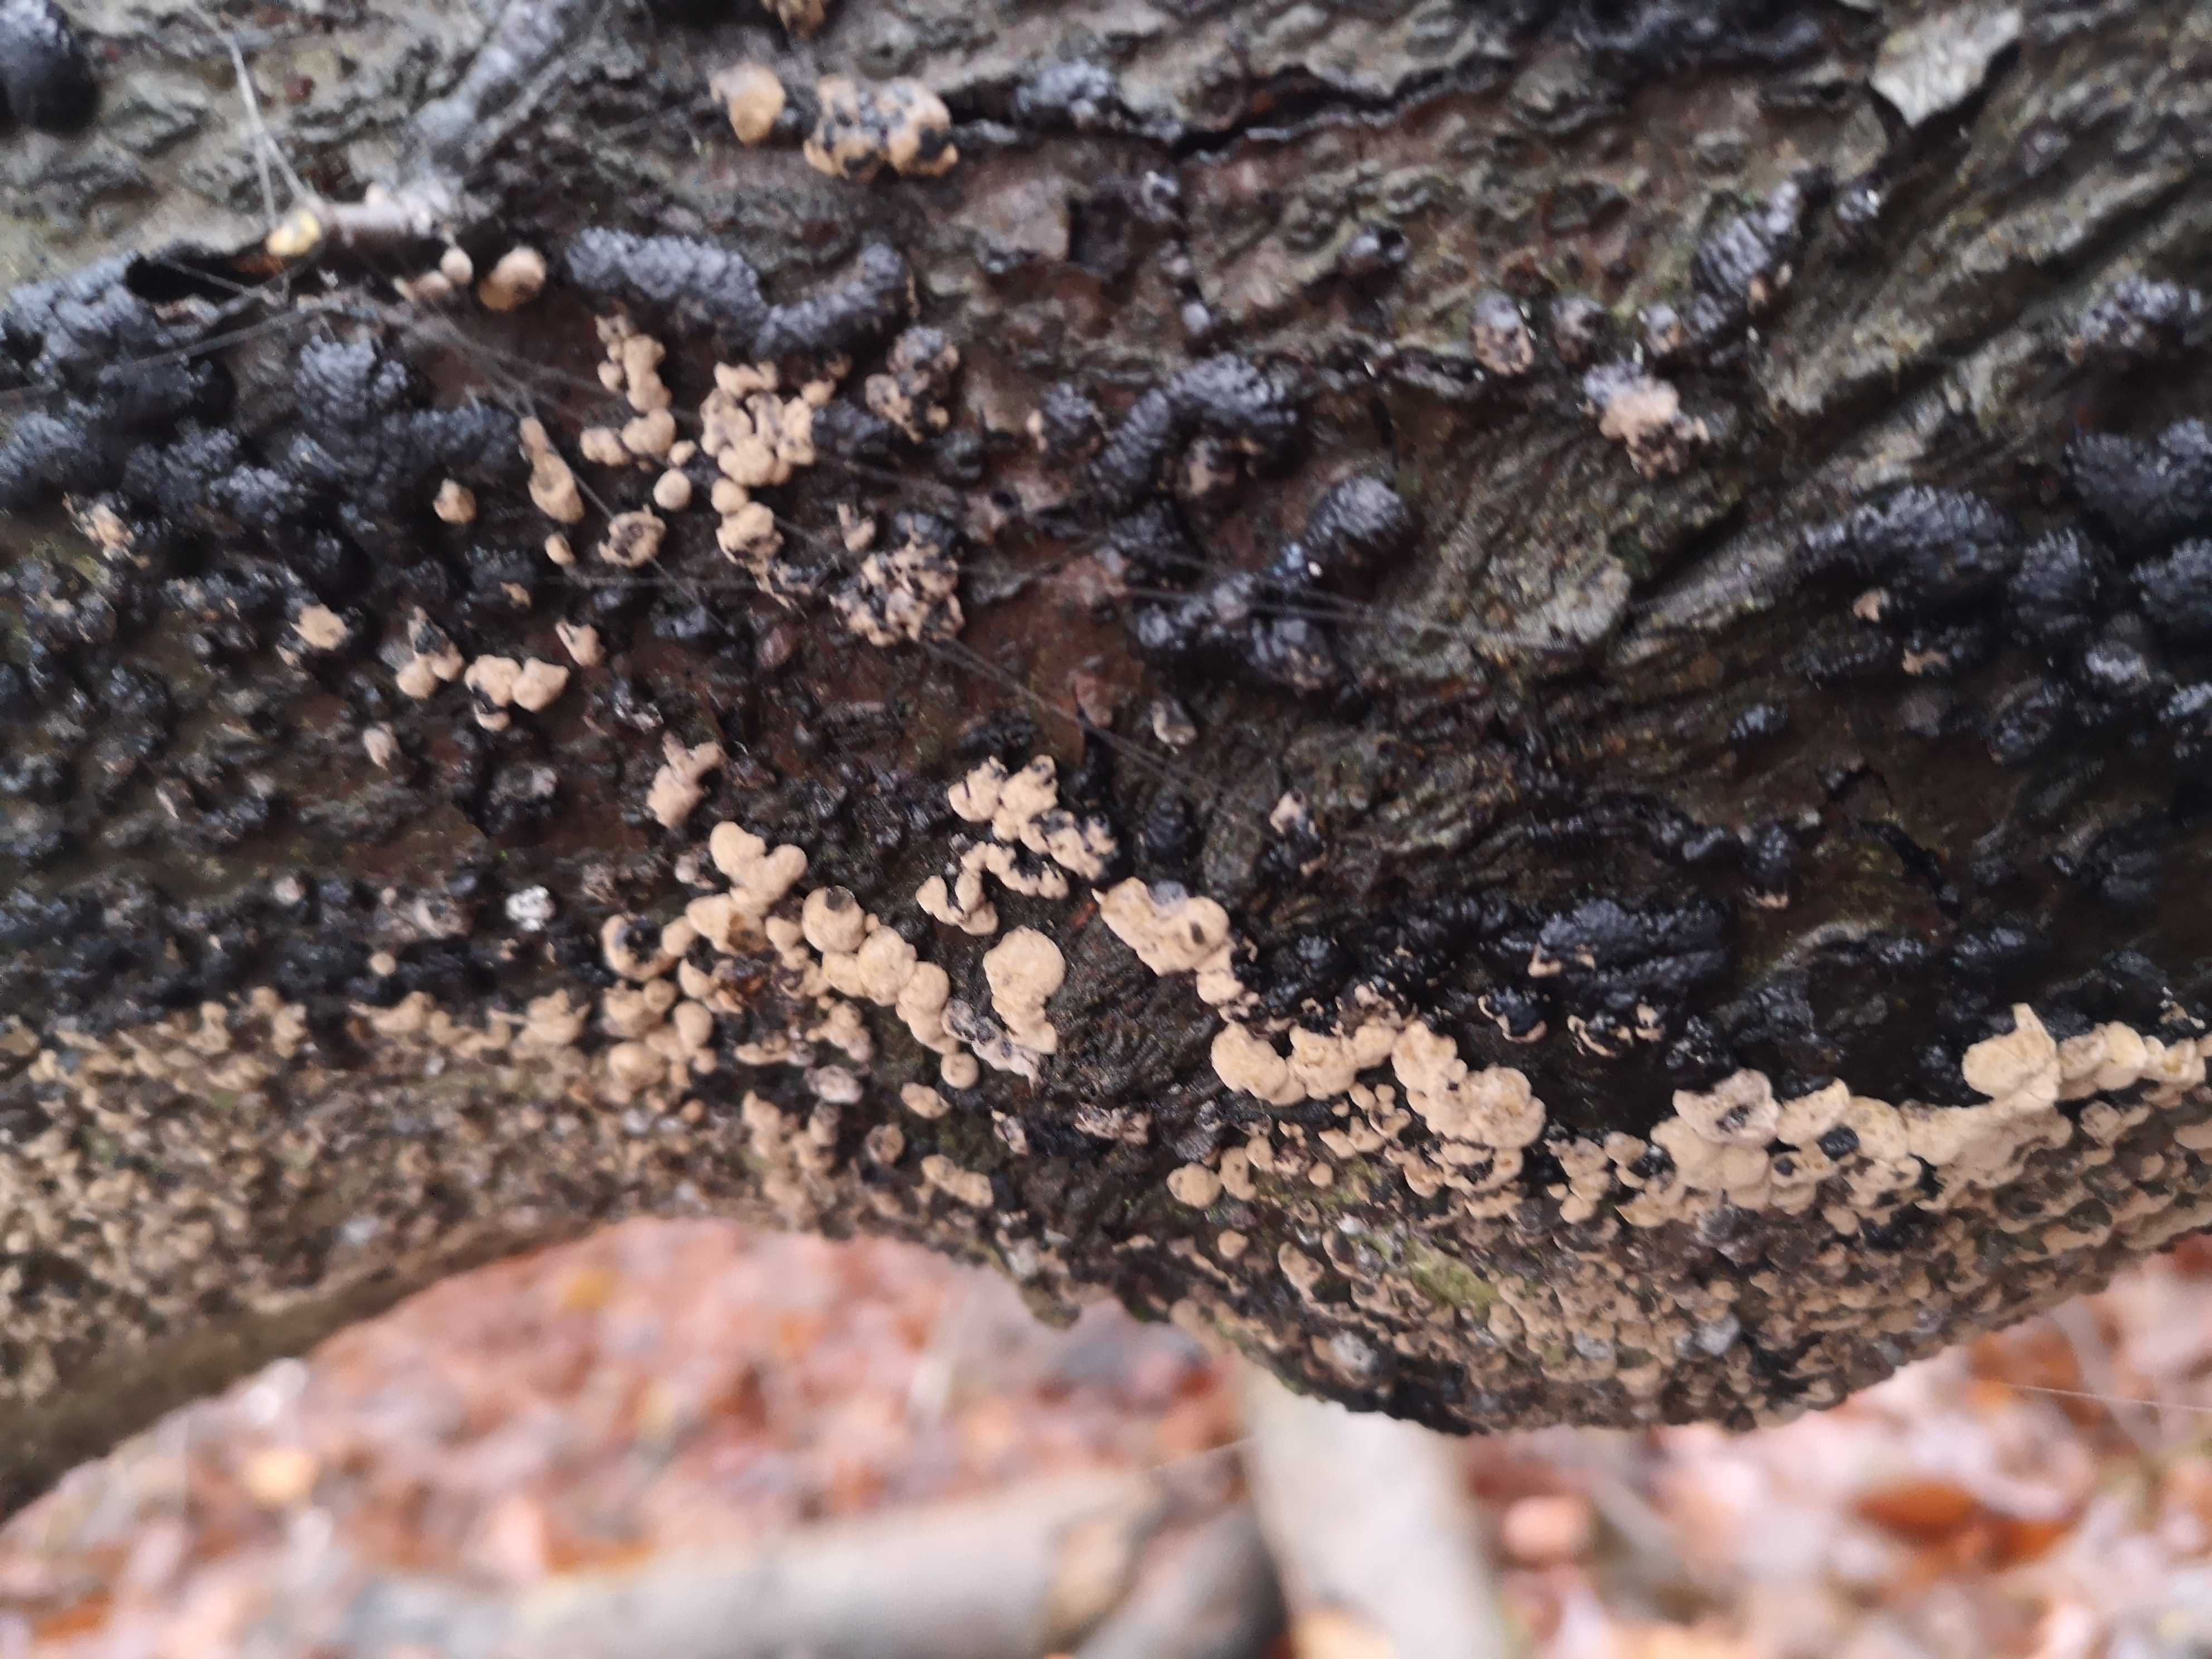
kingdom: Fungi
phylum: Ascomycota
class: Sordariomycetes
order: Xylariales
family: Hypoxylaceae
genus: Jackrogersella
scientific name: Jackrogersella cohaerens
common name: sammenflydende kulbær
